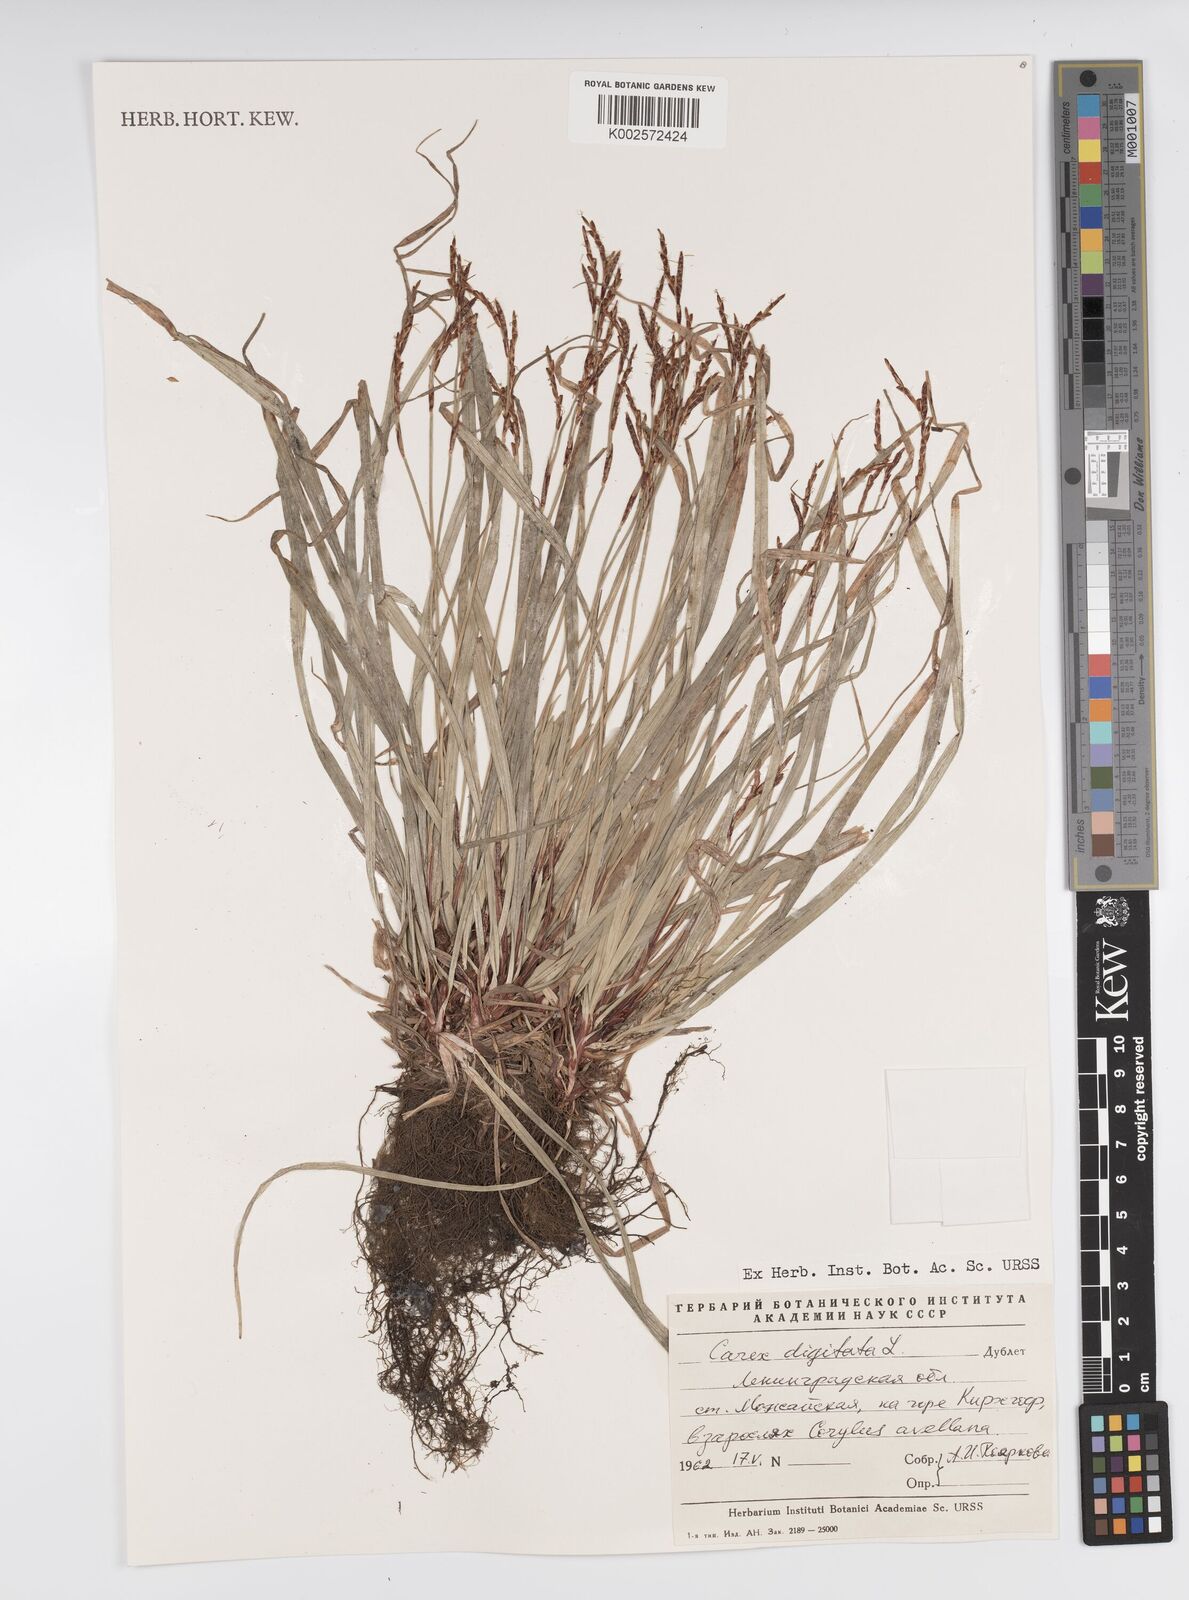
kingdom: Plantae
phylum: Tracheophyta
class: Liliopsida
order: Poales
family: Cyperaceae
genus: Carex
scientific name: Carex digitata
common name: Fingered sedge
